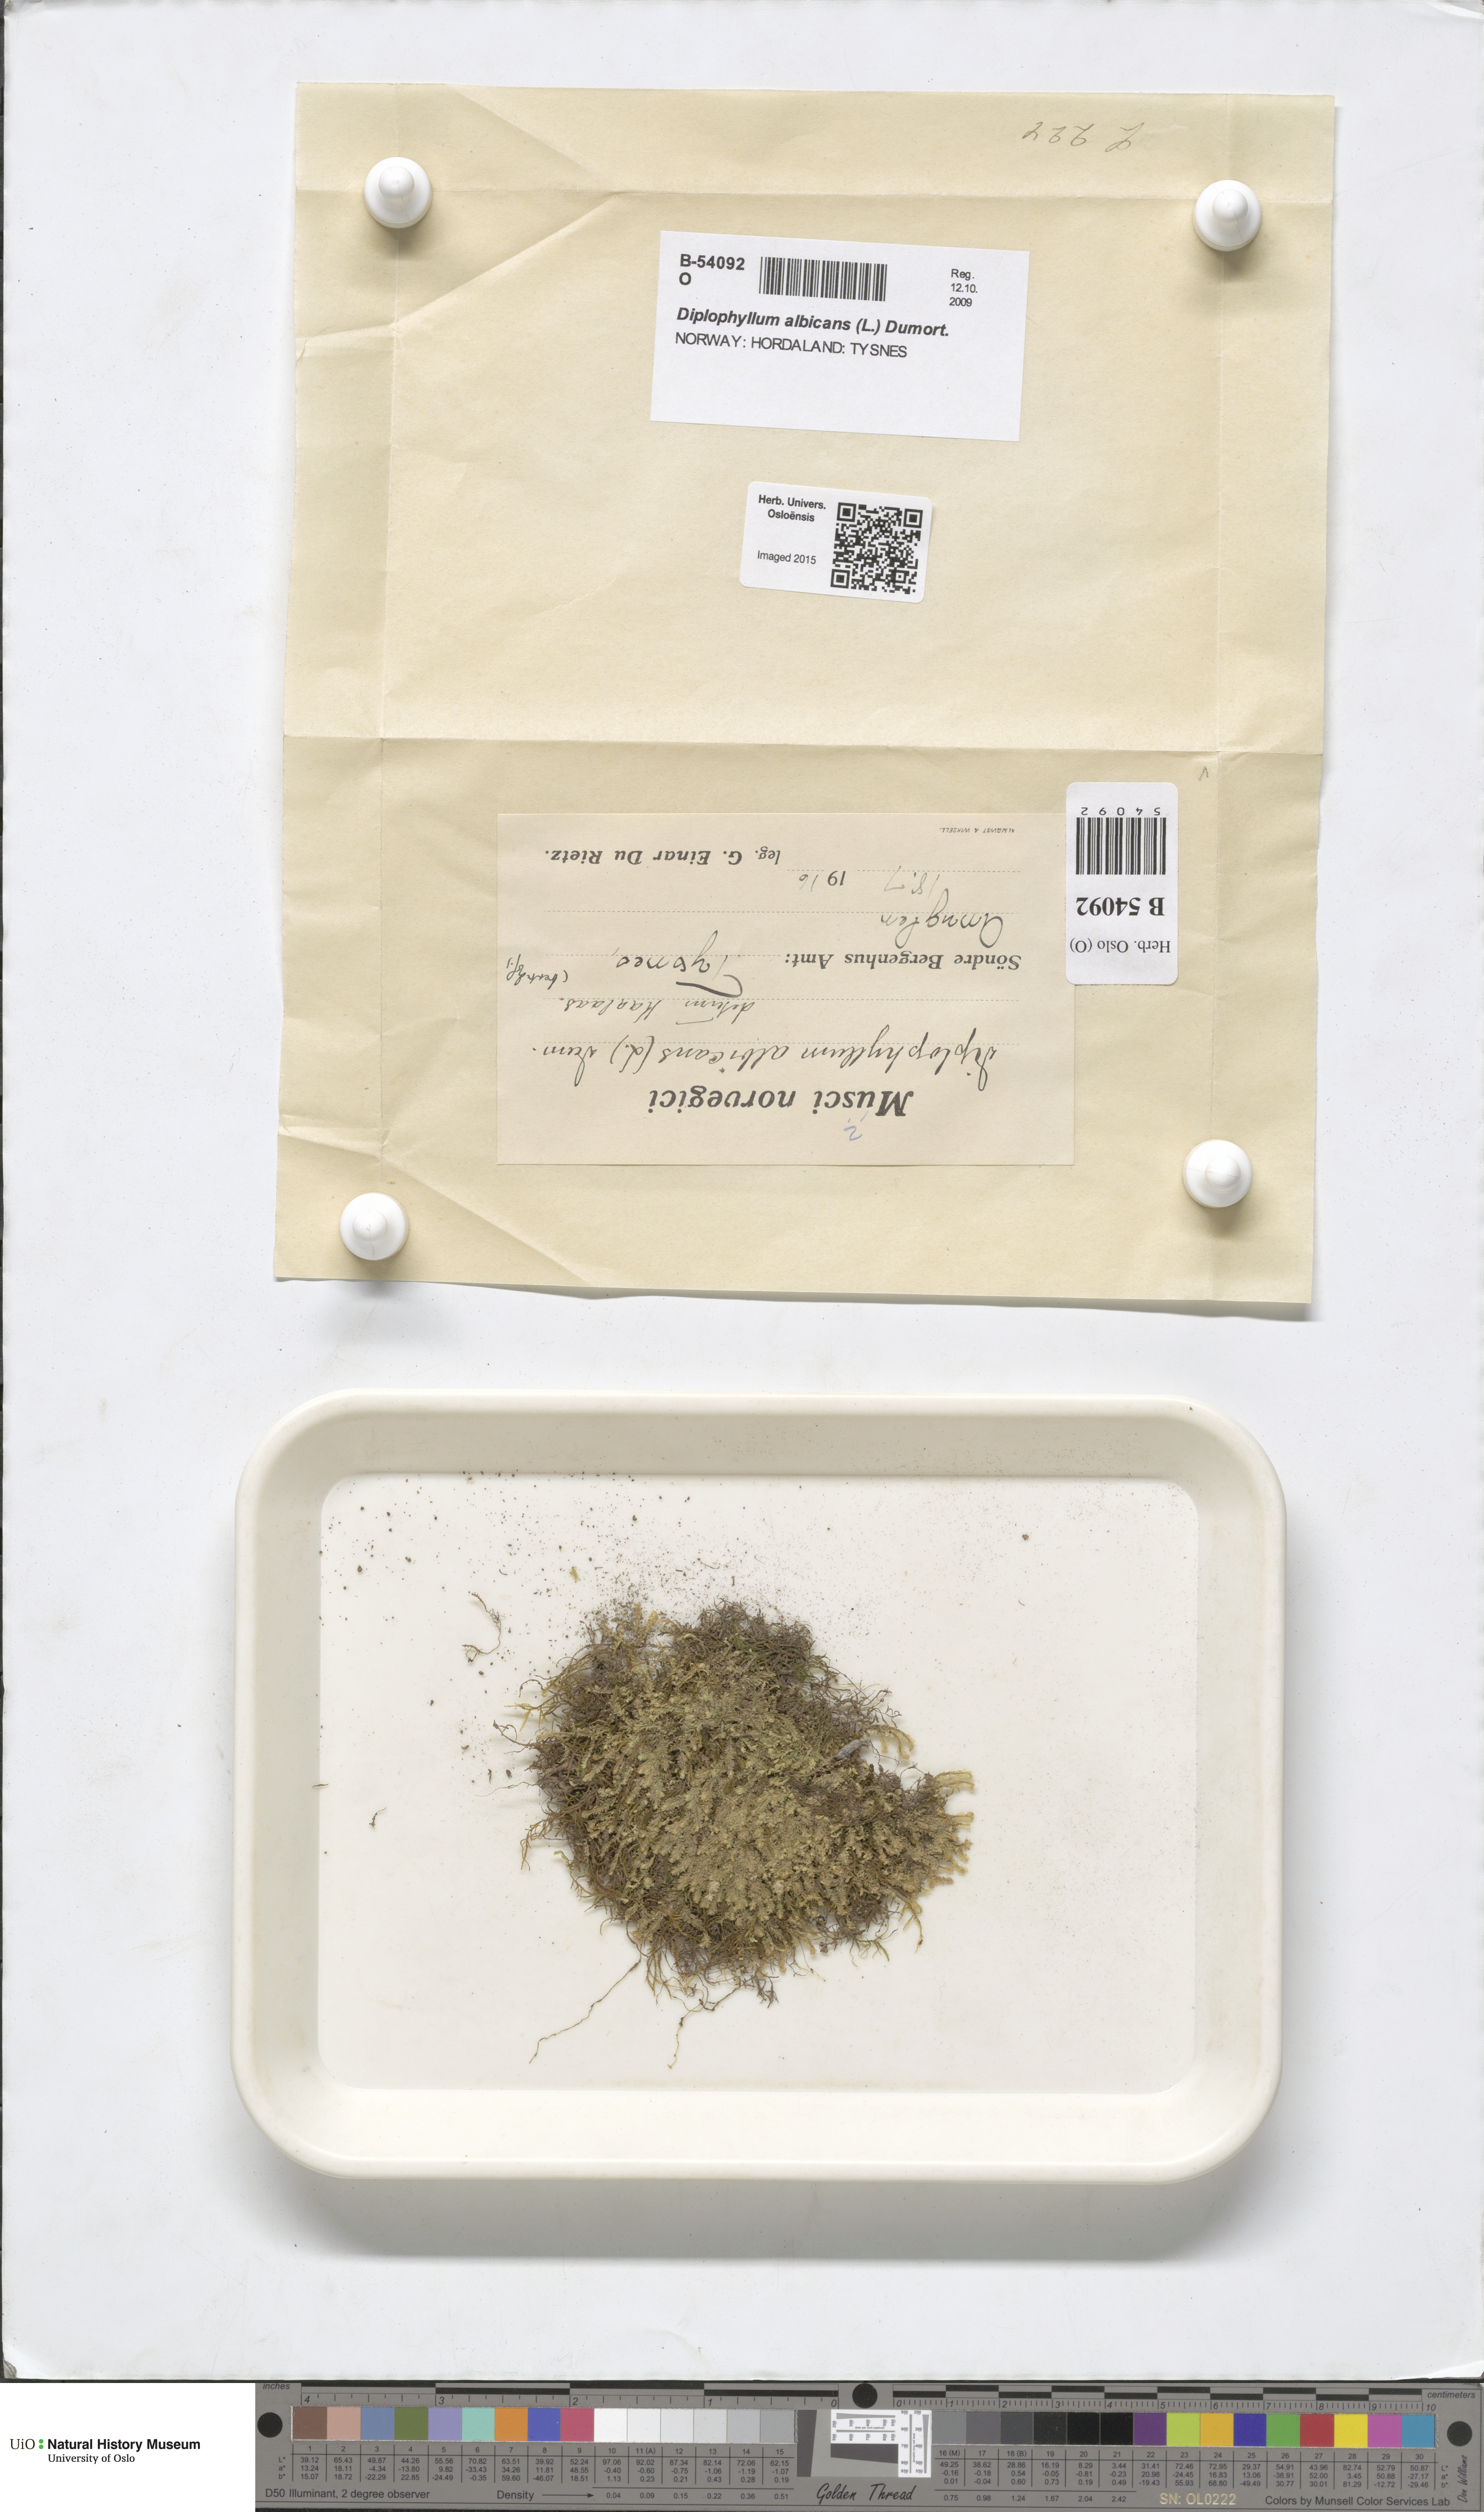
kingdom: Plantae
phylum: Marchantiophyta
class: Jungermanniopsida
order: Jungermanniales
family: Scapaniaceae
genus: Diplophyllum
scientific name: Diplophyllum albicans
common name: White earwort
